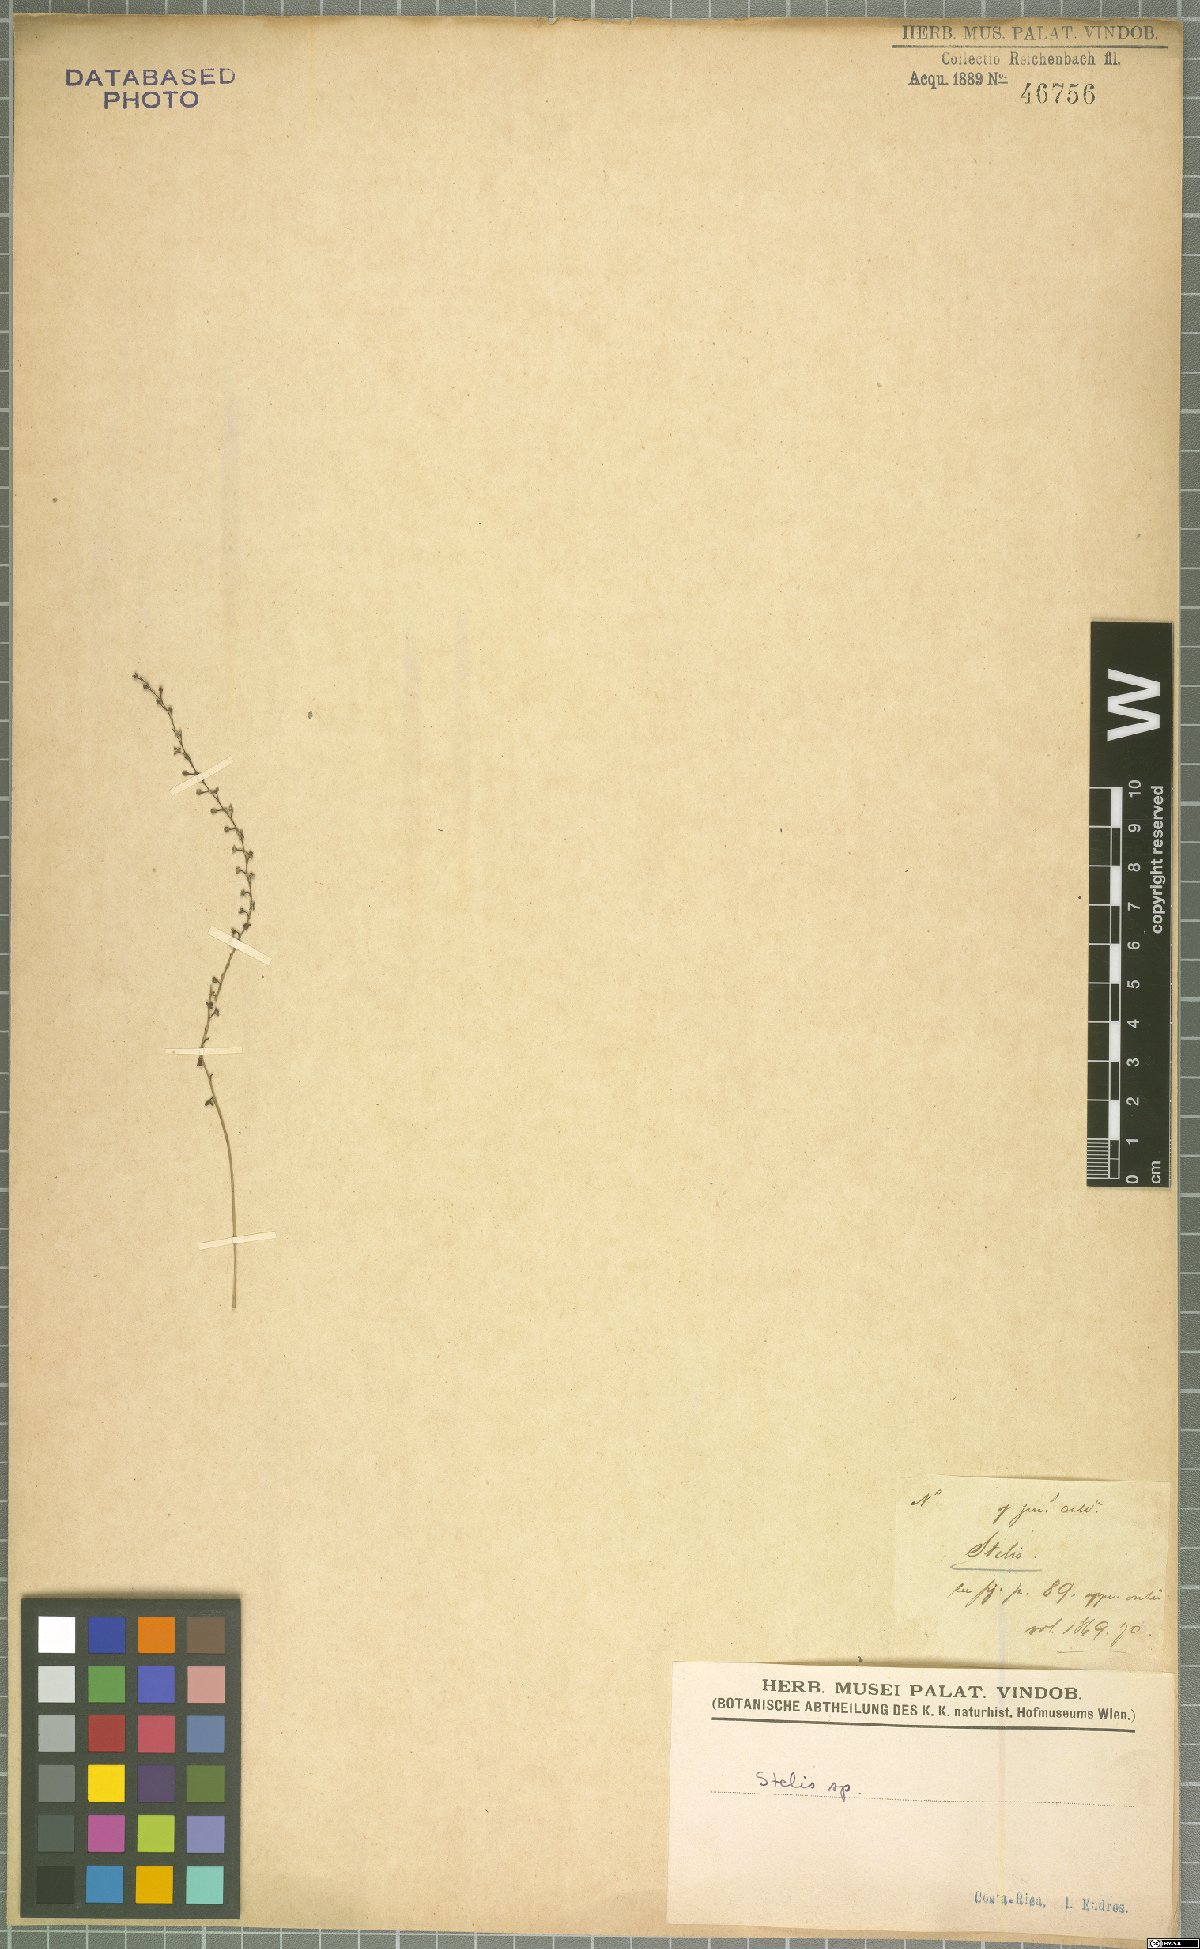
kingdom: Plantae
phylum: Tracheophyta
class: Liliopsida
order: Asparagales
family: Orchidaceae
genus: Stelis
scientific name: Stelis
